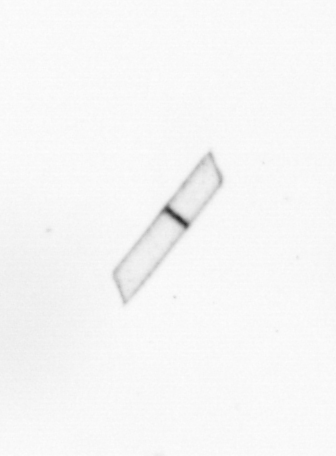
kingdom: Chromista
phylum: Ochrophyta
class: Bacillariophyceae
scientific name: Bacillariophyceae
